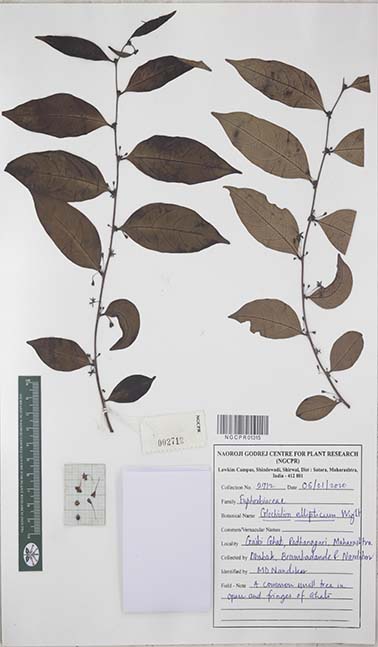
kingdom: Plantae
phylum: Tracheophyta
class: Magnoliopsida
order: Malpighiales
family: Phyllanthaceae
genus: Glochidion
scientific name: Glochidion ellipticum
